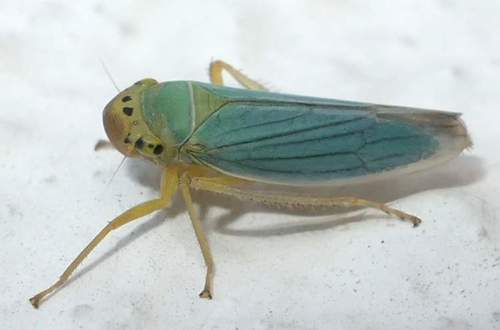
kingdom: Animalia
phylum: Arthropoda
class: Insecta
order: Hemiptera
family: Cicadellidae
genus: Cicadella
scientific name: Cicadella viridis
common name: Leafhopper
